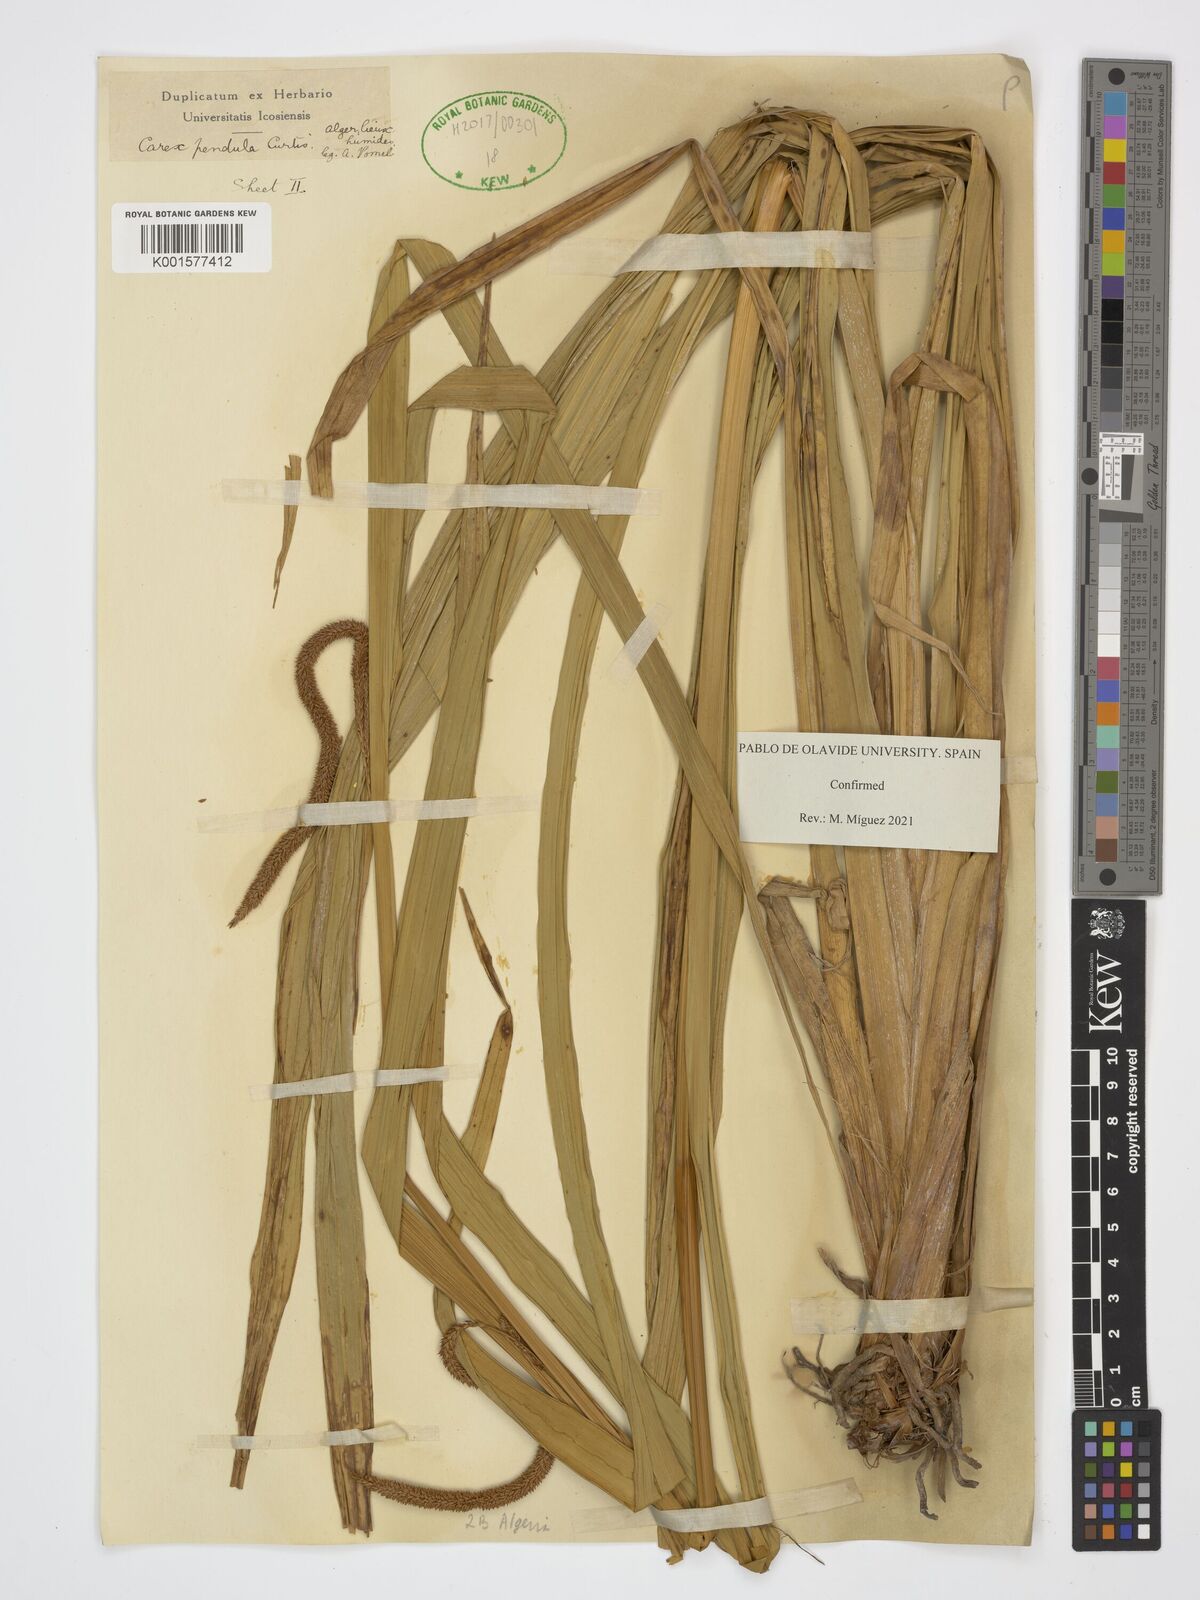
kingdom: Plantae
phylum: Tracheophyta
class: Liliopsida
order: Poales
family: Cyperaceae
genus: Carex
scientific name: Carex pendula
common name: Pendulous sedge
